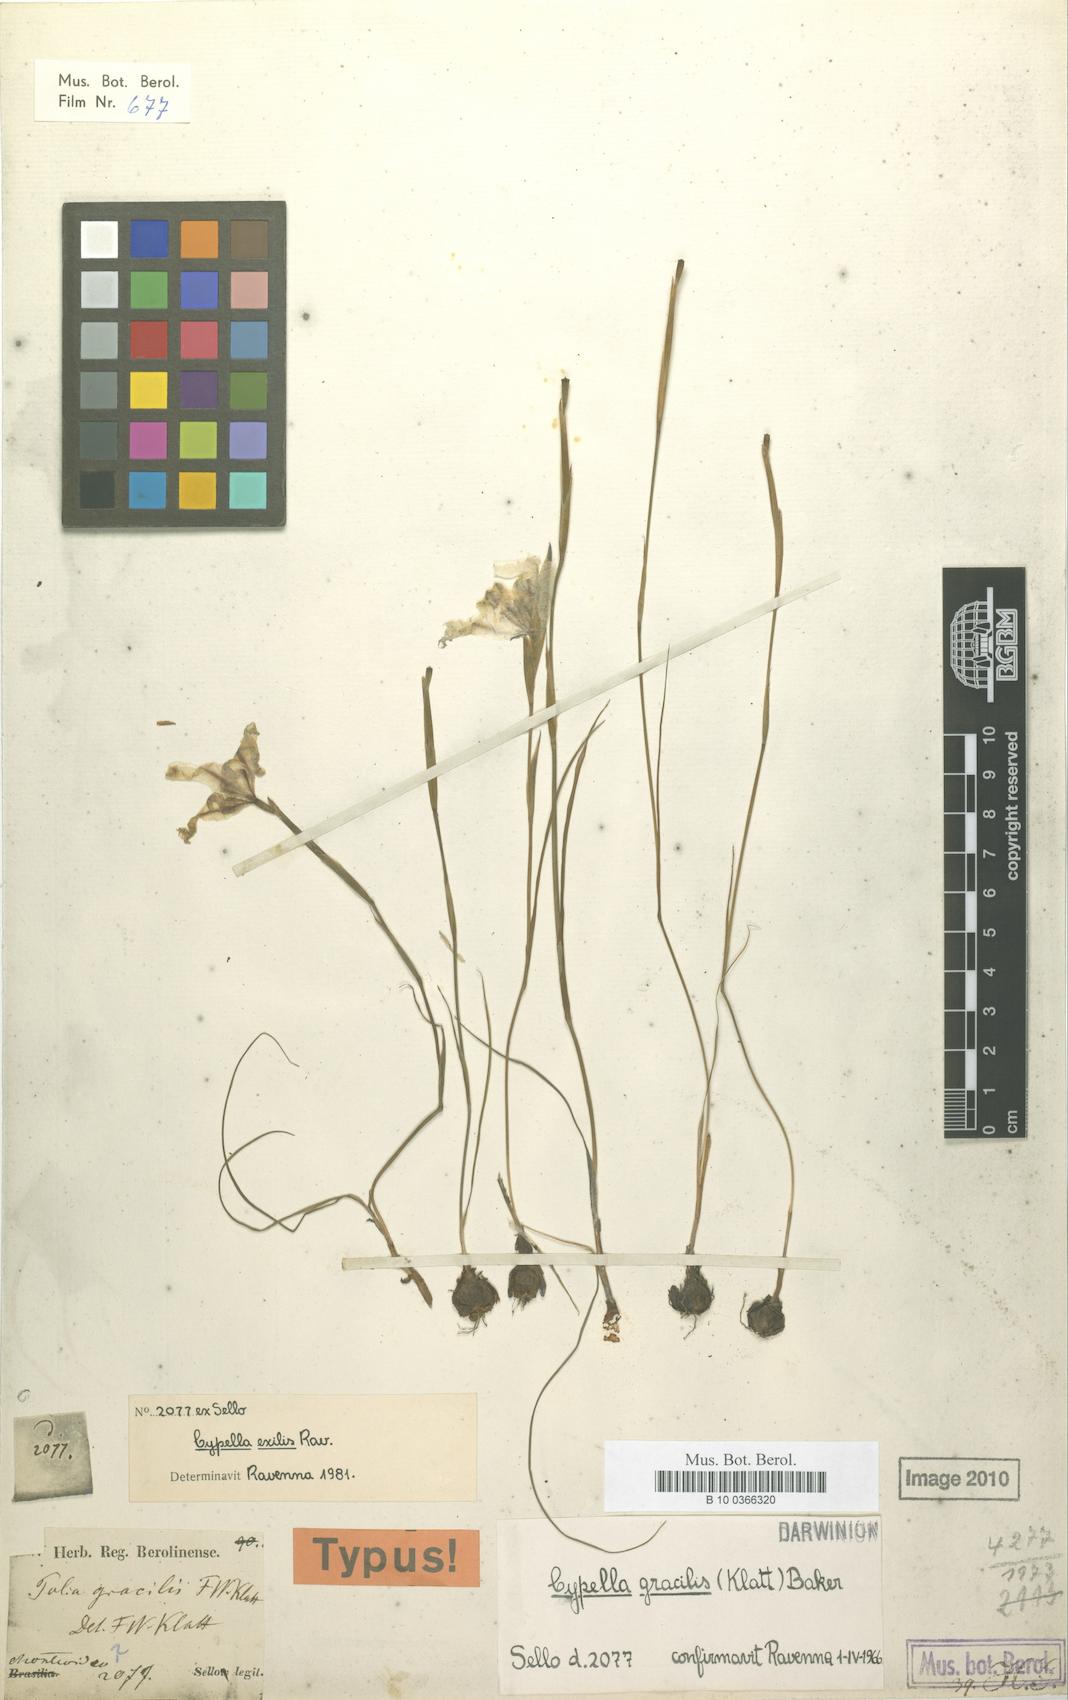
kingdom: Plantae
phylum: Tracheophyta
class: Liliopsida
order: Asparagales
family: Iridaceae
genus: Cypella
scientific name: Cypella exilis
